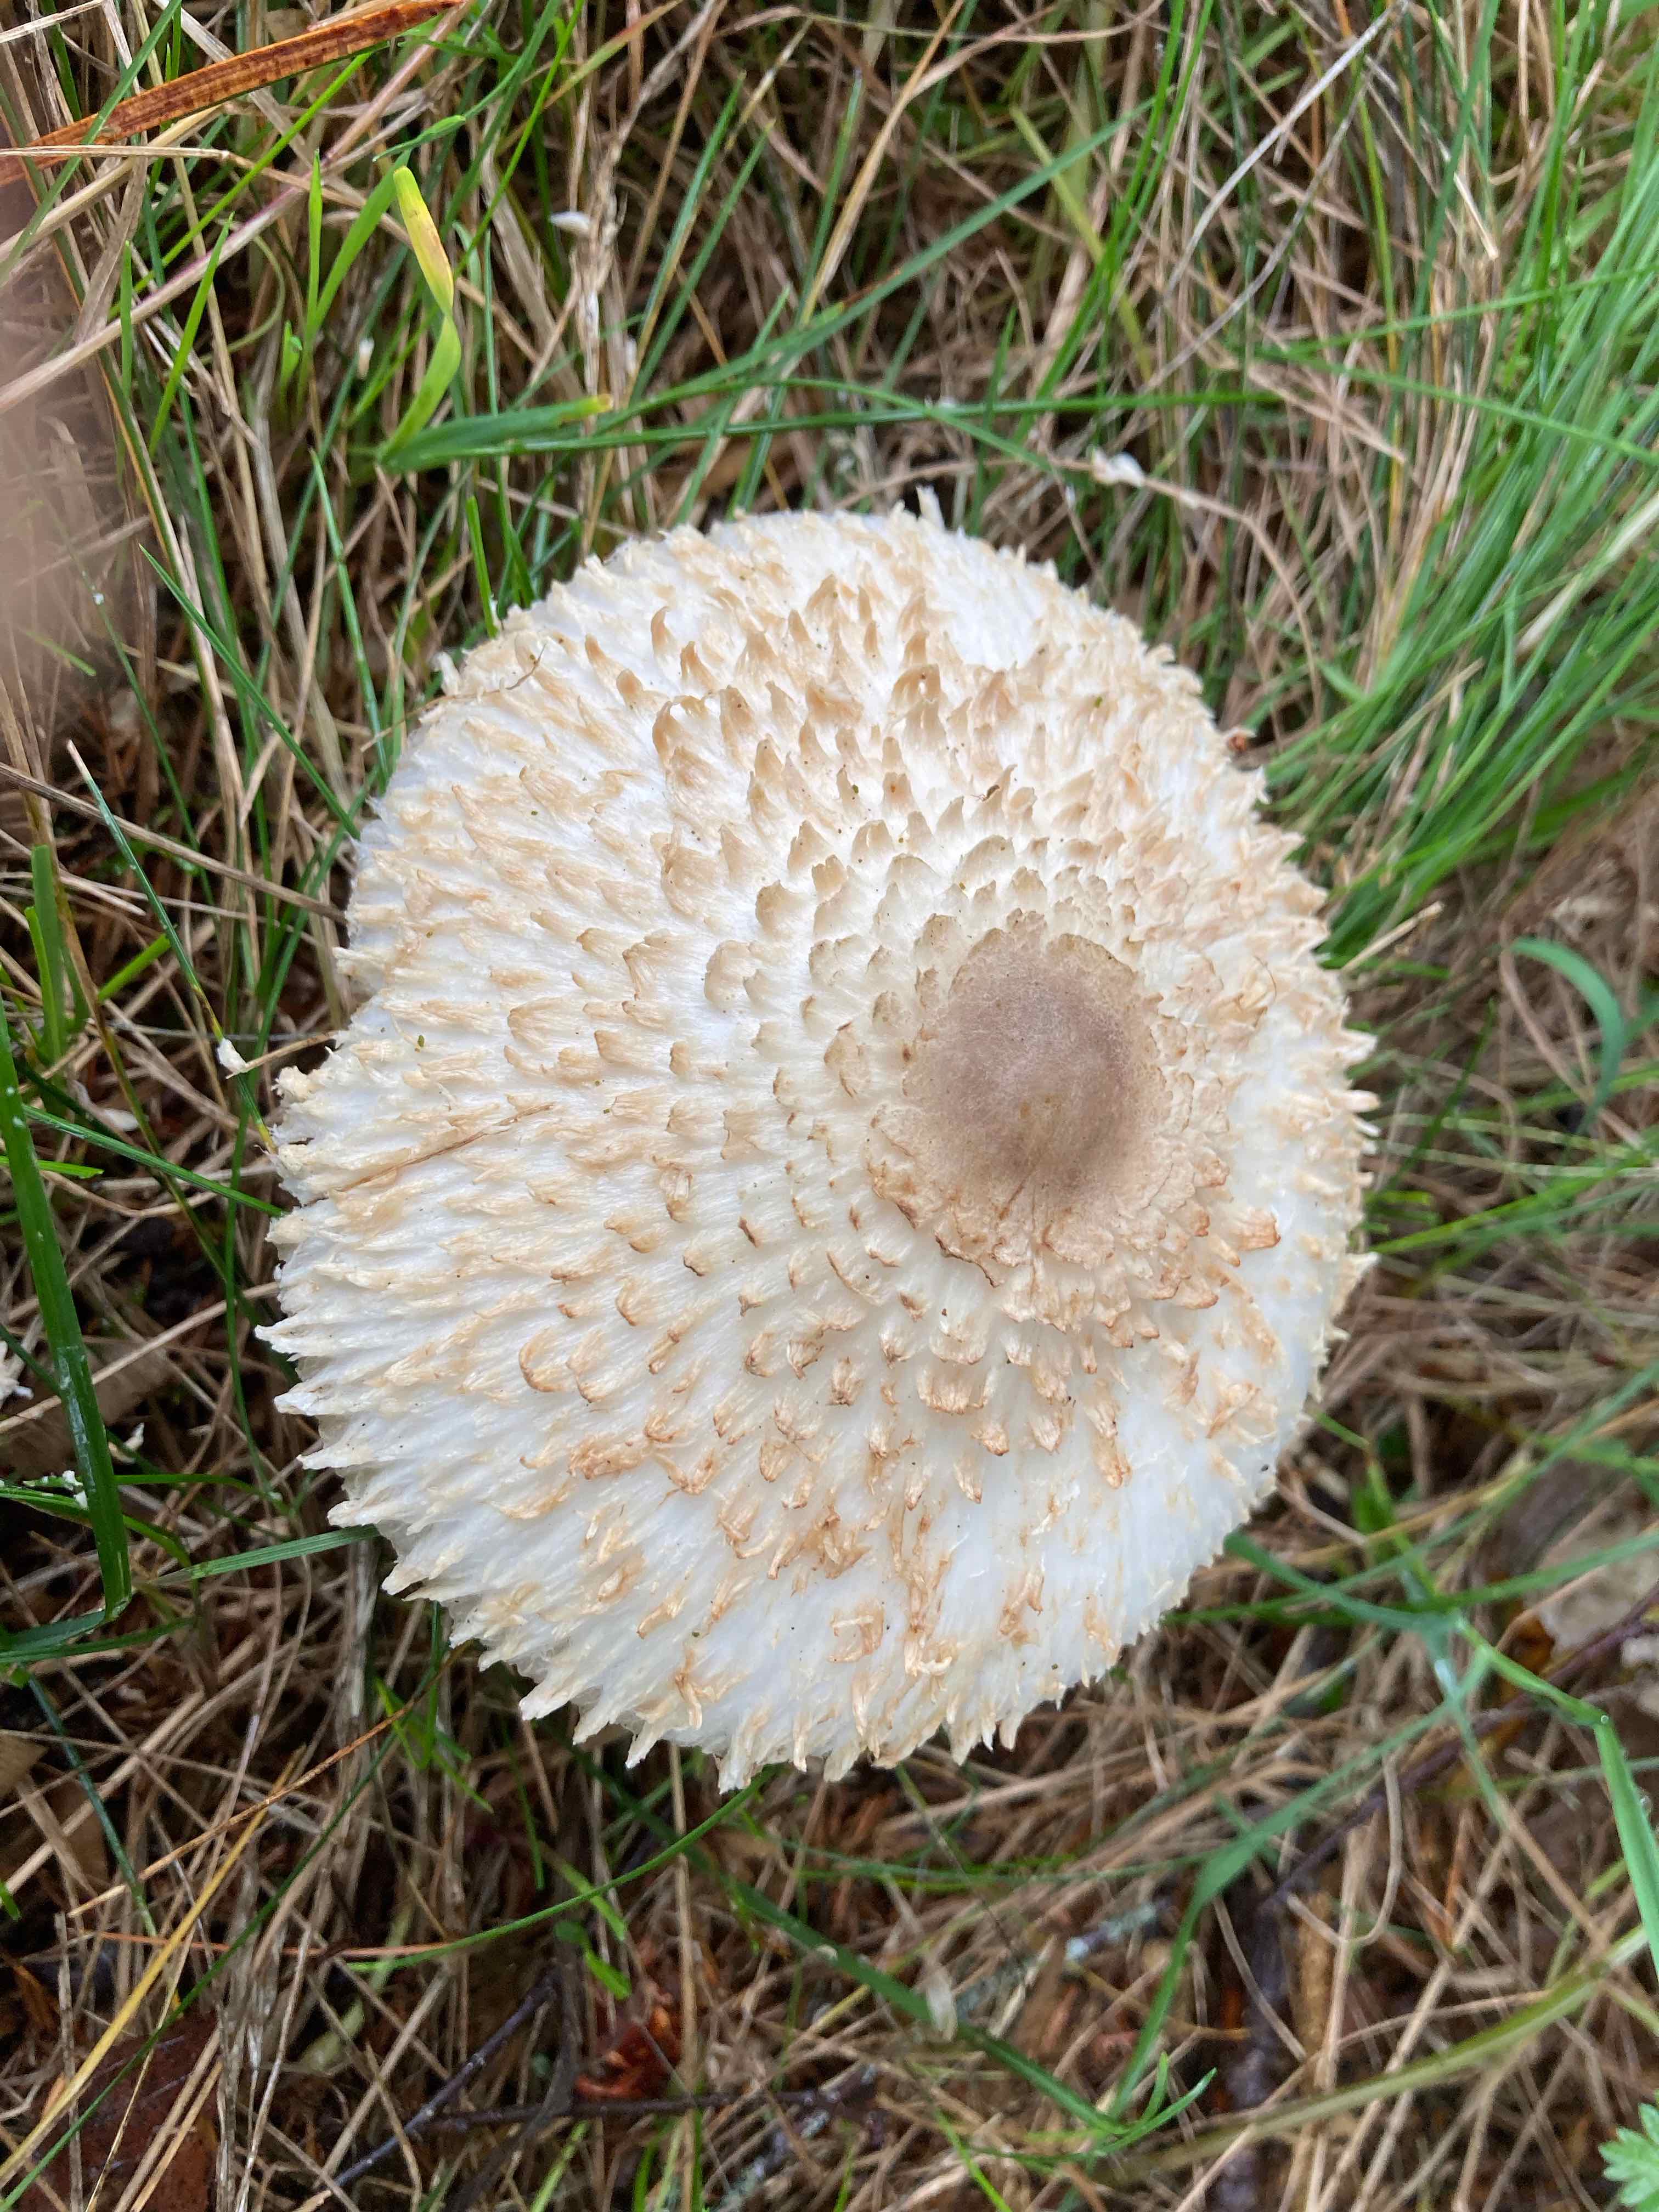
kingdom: Fungi
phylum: Basidiomycota
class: Agaricomycetes
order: Agaricales
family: Agaricaceae
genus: Leucoagaricus
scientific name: Leucoagaricus nympharum
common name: gran-silkehat
